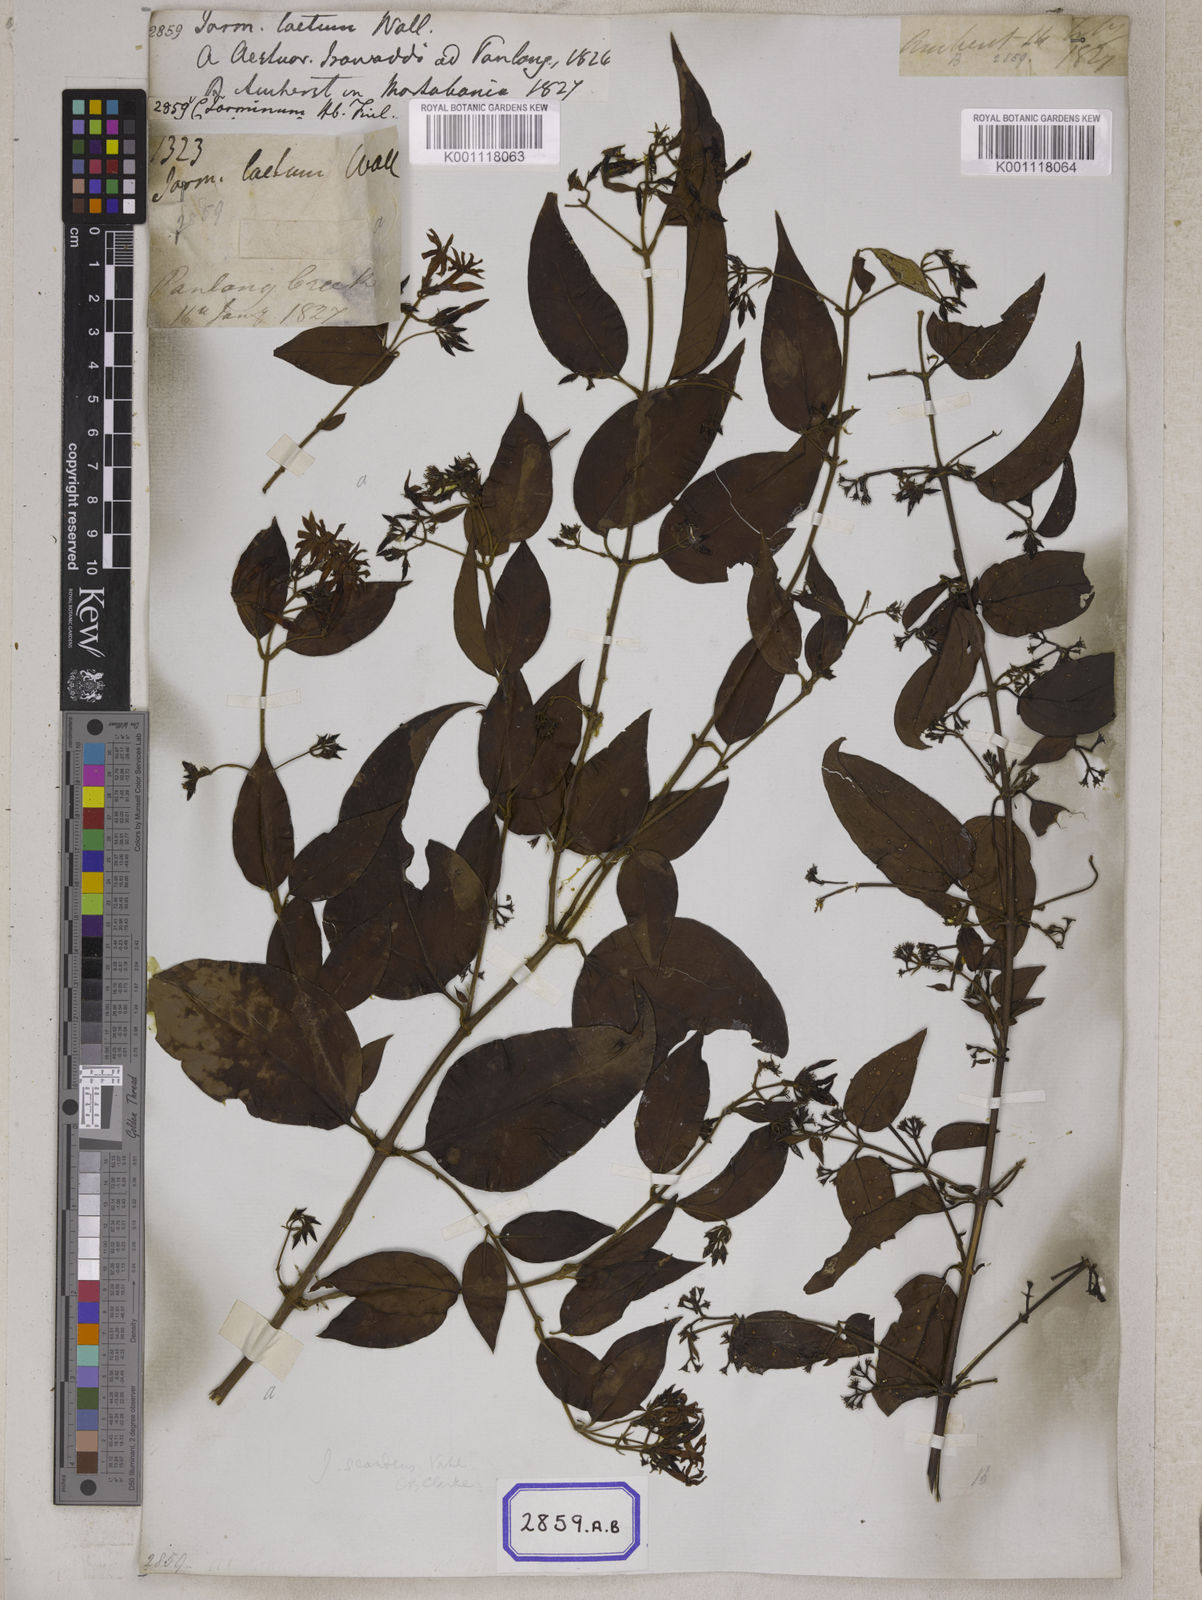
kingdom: Plantae
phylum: Tracheophyta
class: Magnoliopsida
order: Lamiales
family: Oleaceae
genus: Jasminum
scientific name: Jasminum
